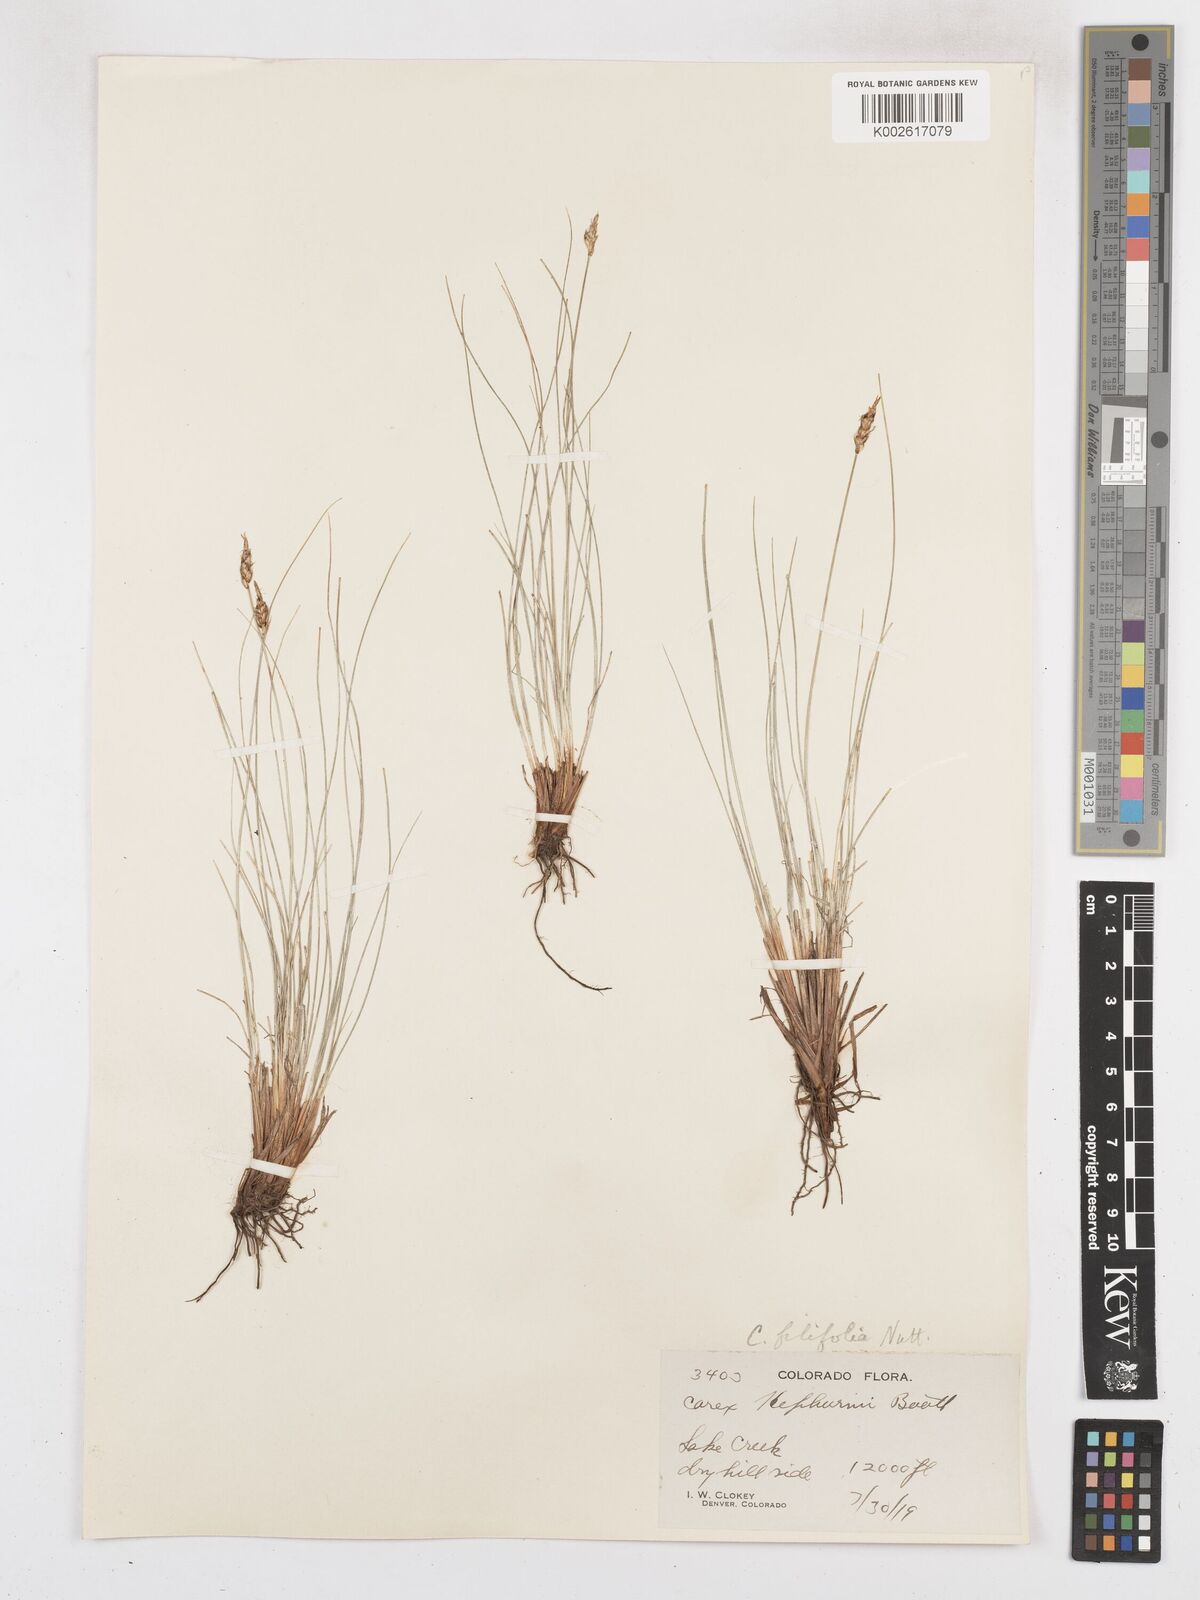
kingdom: Plantae
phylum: Tracheophyta
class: Liliopsida
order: Poales
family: Cyperaceae
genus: Carex
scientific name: Carex filifolia
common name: Threadleaf sedge
